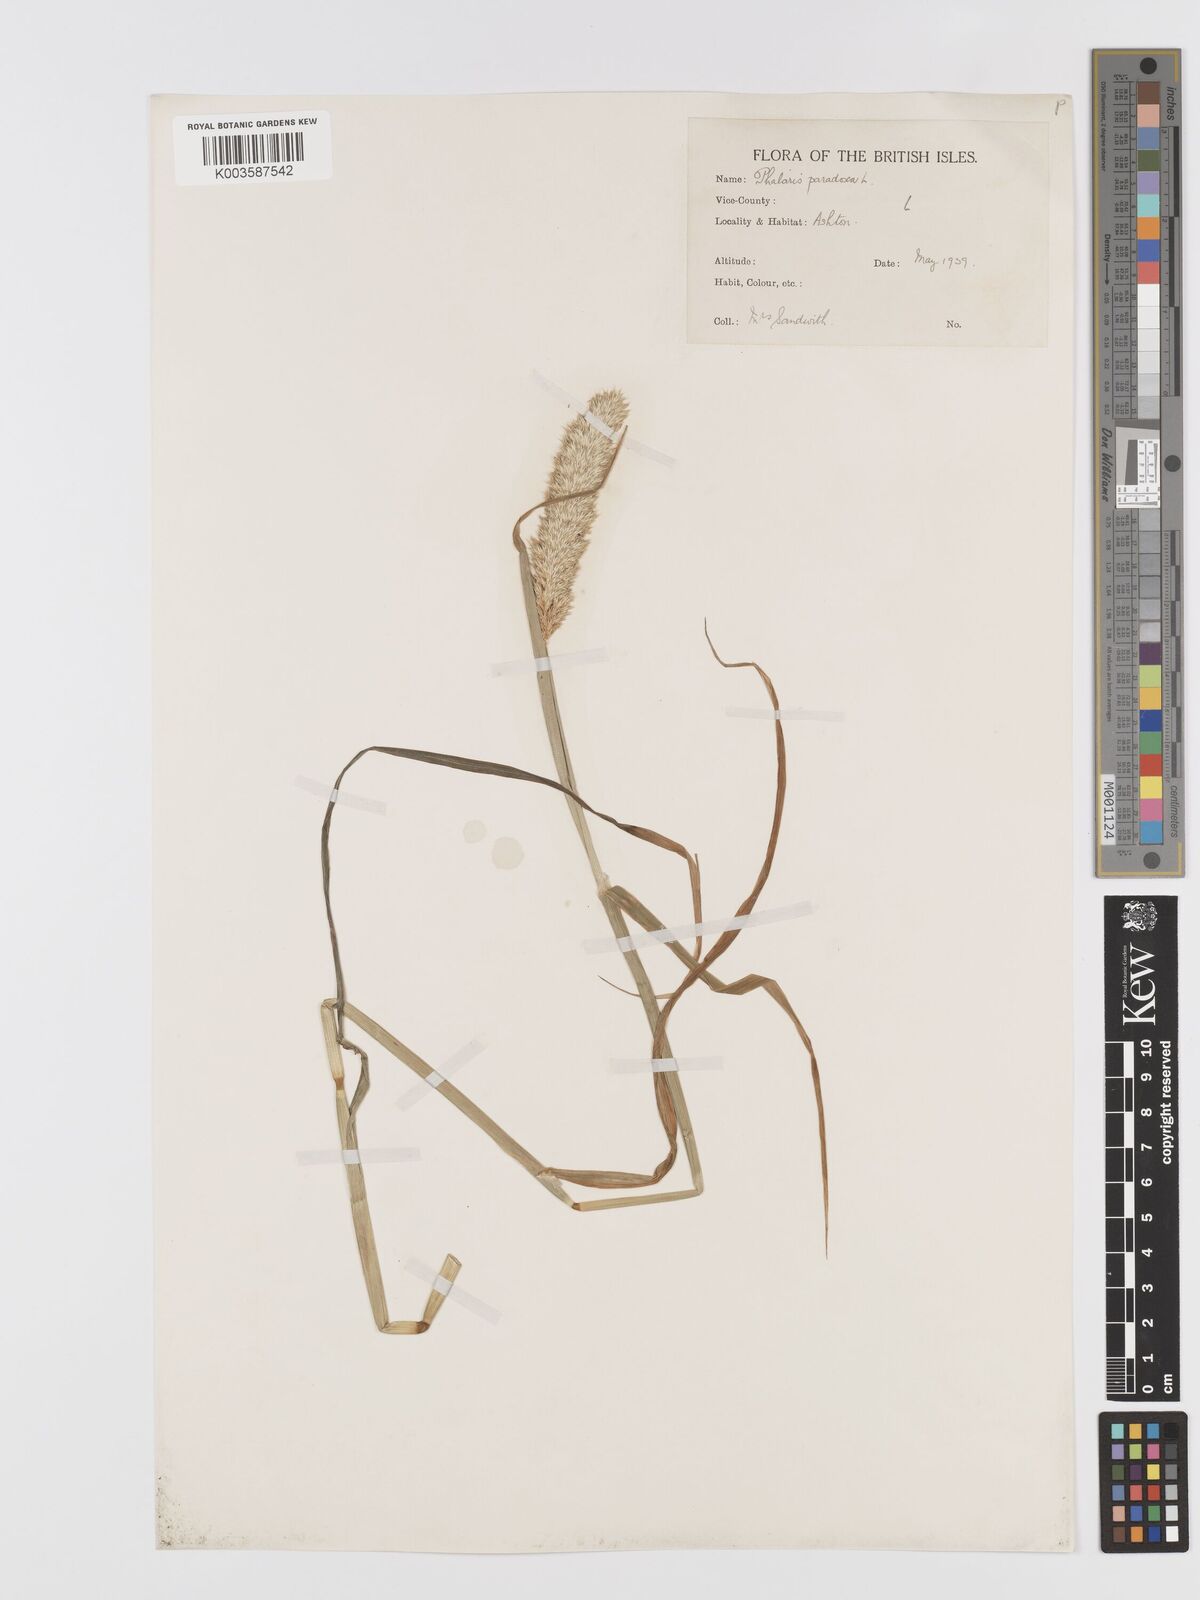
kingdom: Plantae
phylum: Tracheophyta
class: Liliopsida
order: Poales
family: Poaceae
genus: Phalaris
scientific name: Phalaris paradoxa
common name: Awned canary-grass
